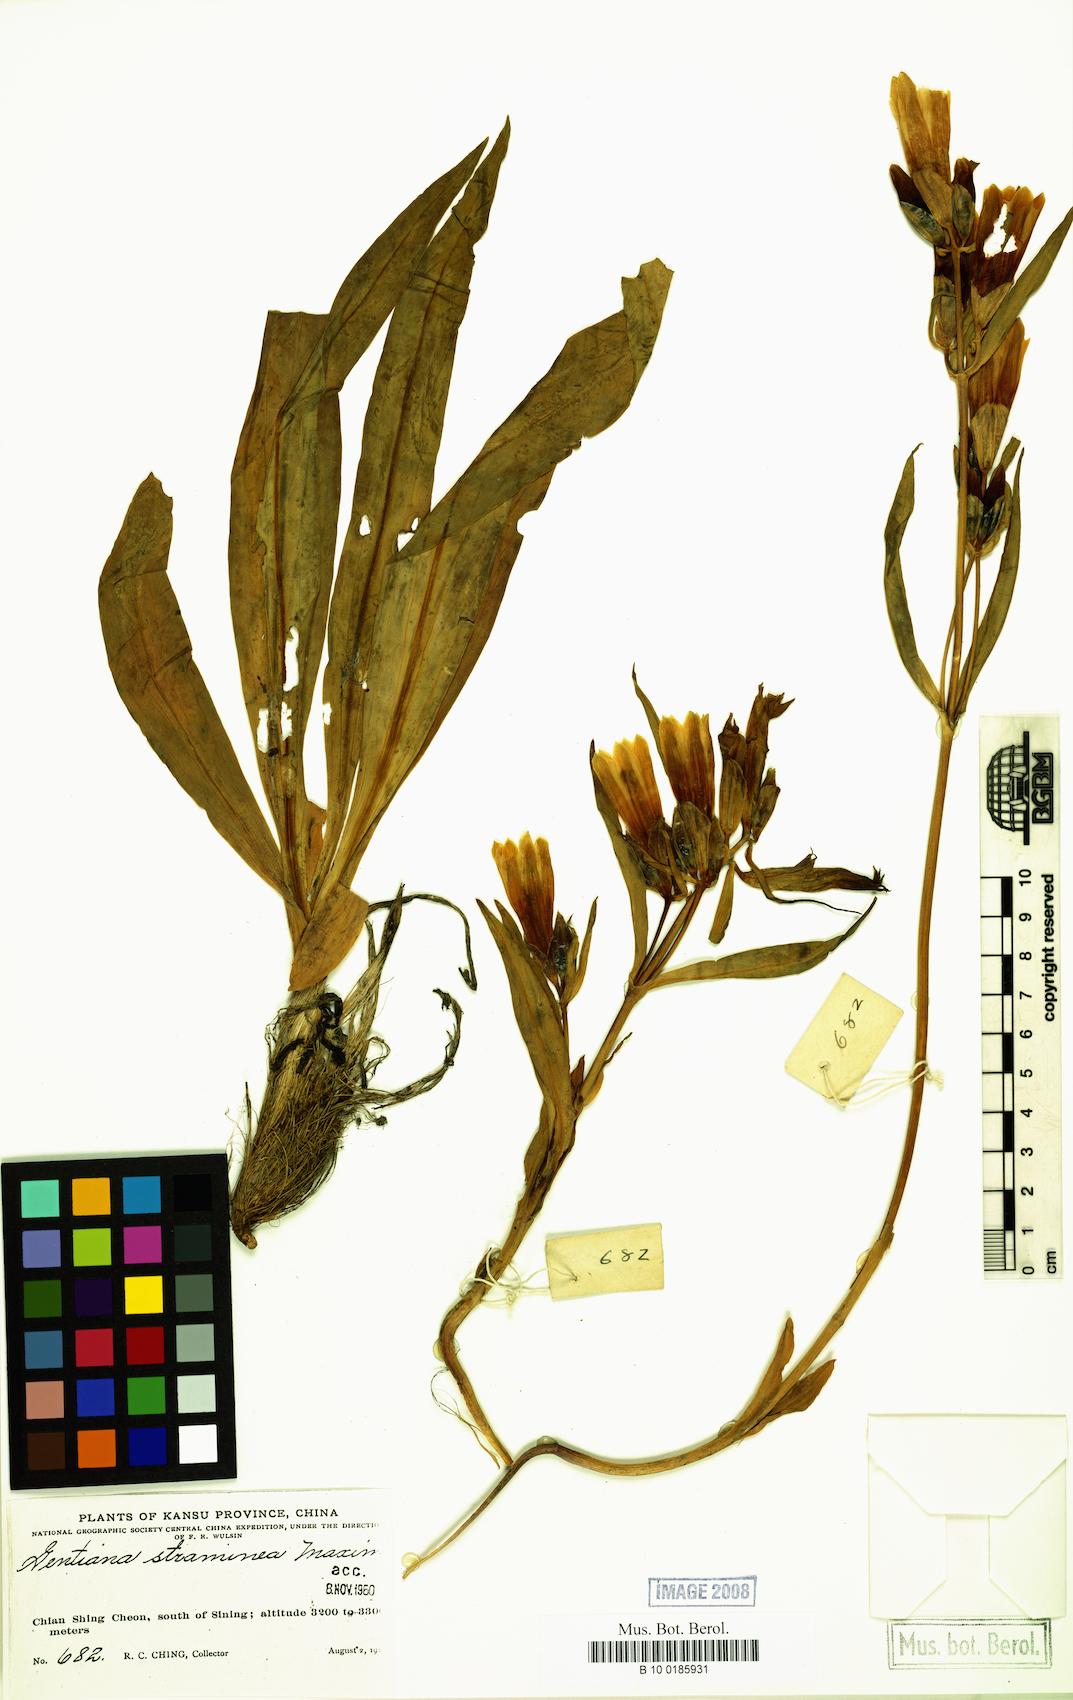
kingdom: Plantae
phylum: Tracheophyta
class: Magnoliopsida
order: Gentianales
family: Gentianaceae
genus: Gentiana
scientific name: Gentiana straminea
